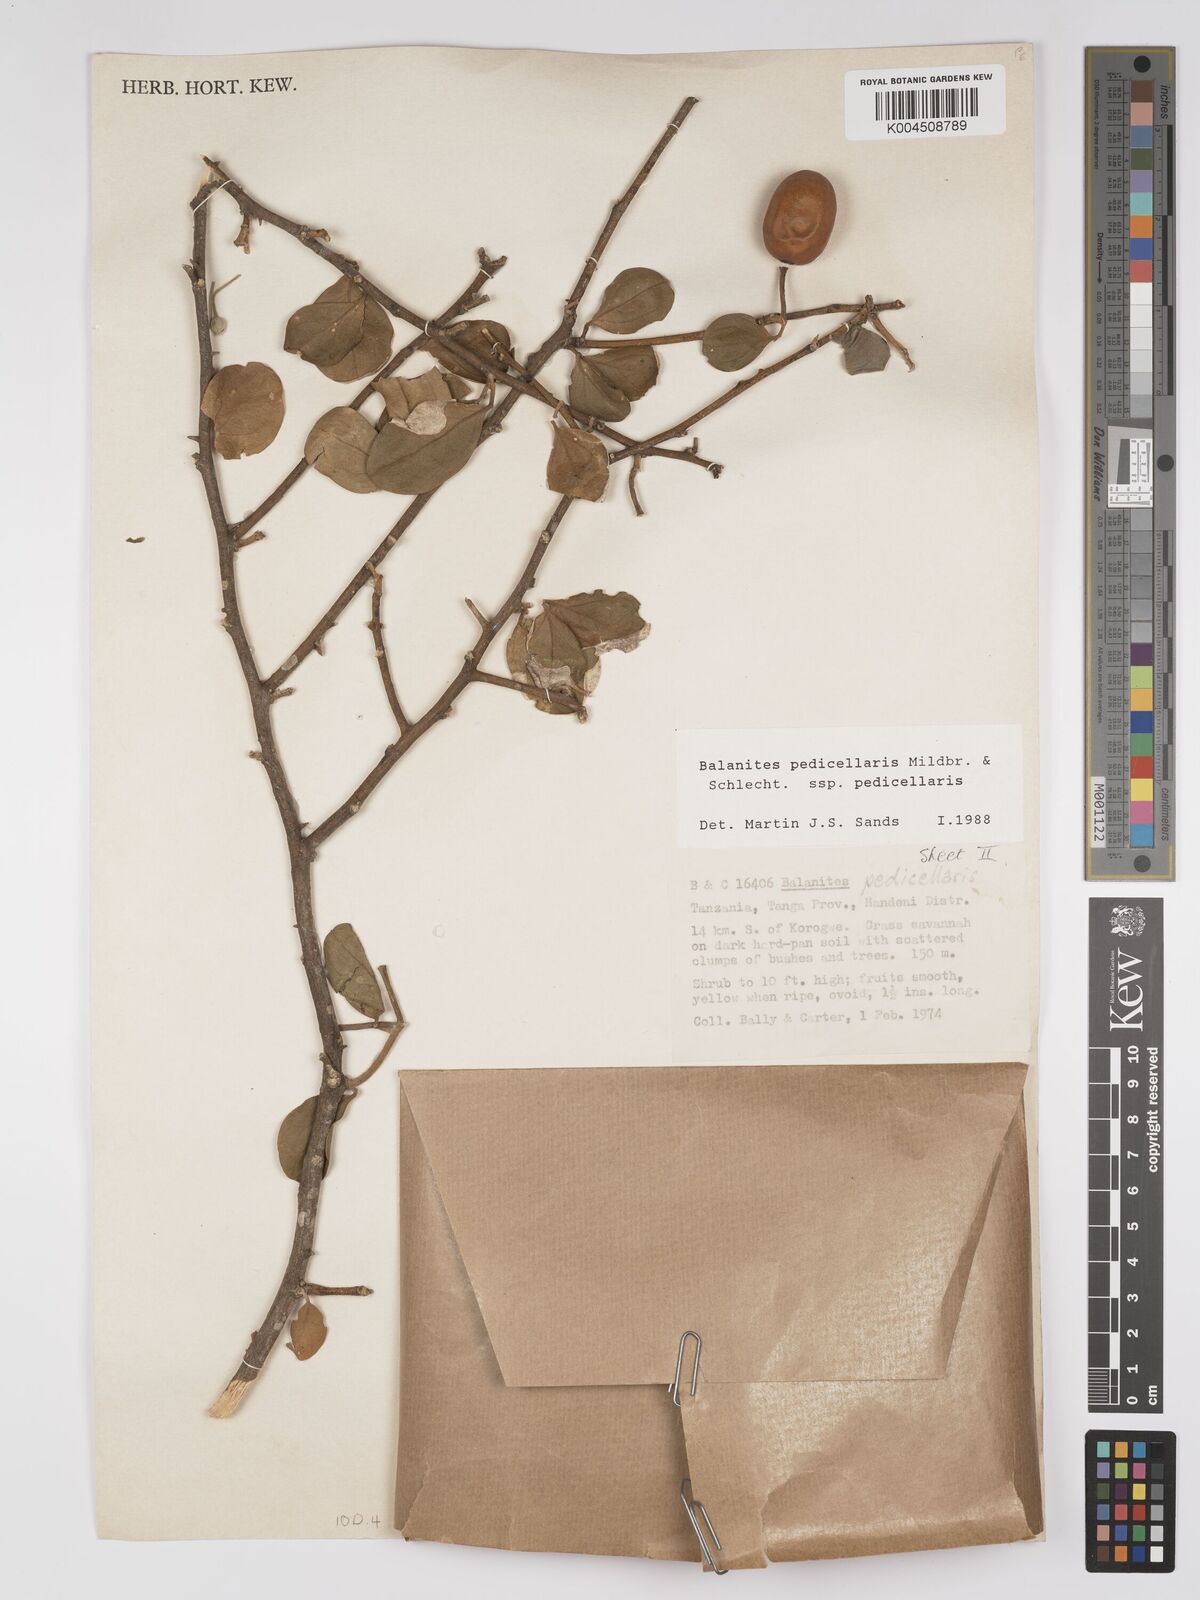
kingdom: Plantae
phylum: Tracheophyta
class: Magnoliopsida
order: Zygophyllales
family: Zygophyllaceae
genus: Balanites
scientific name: Balanites pedicellaris
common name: Small green-thorn
